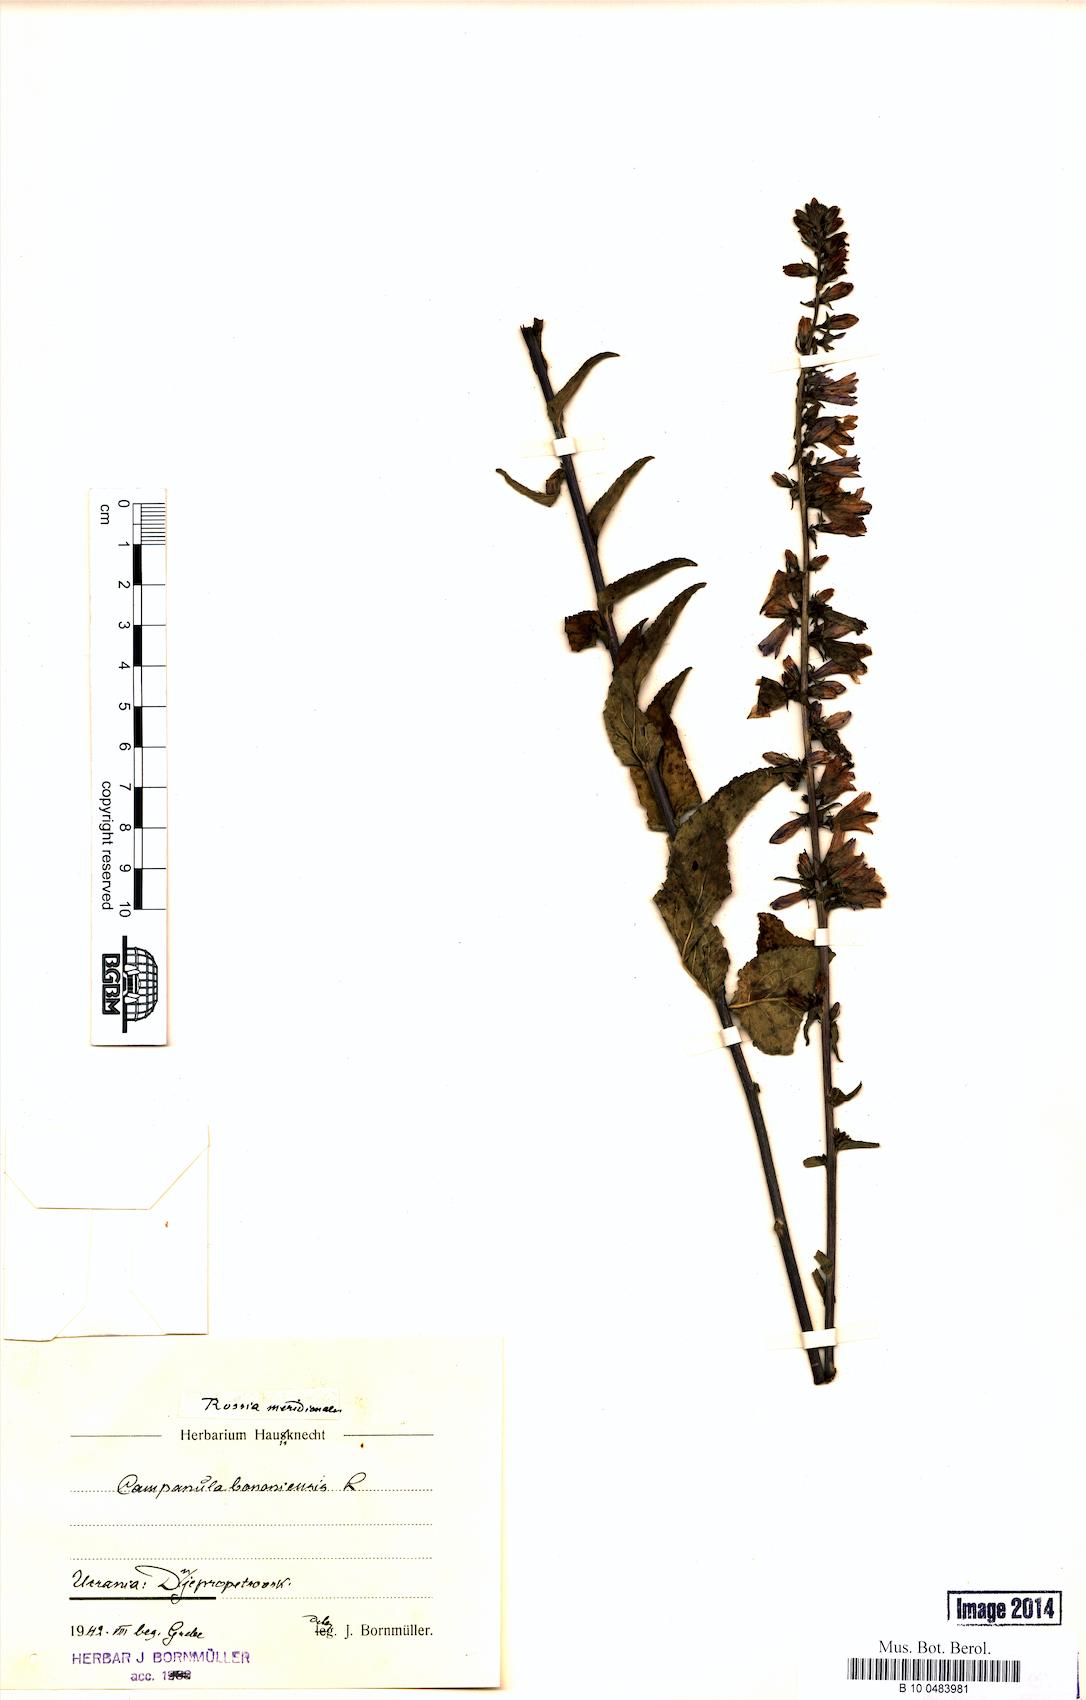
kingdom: Plantae
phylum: Tracheophyta
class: Magnoliopsida
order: Asterales
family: Campanulaceae
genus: Campanula
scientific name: Campanula bononiensis
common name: Pale bellflower
